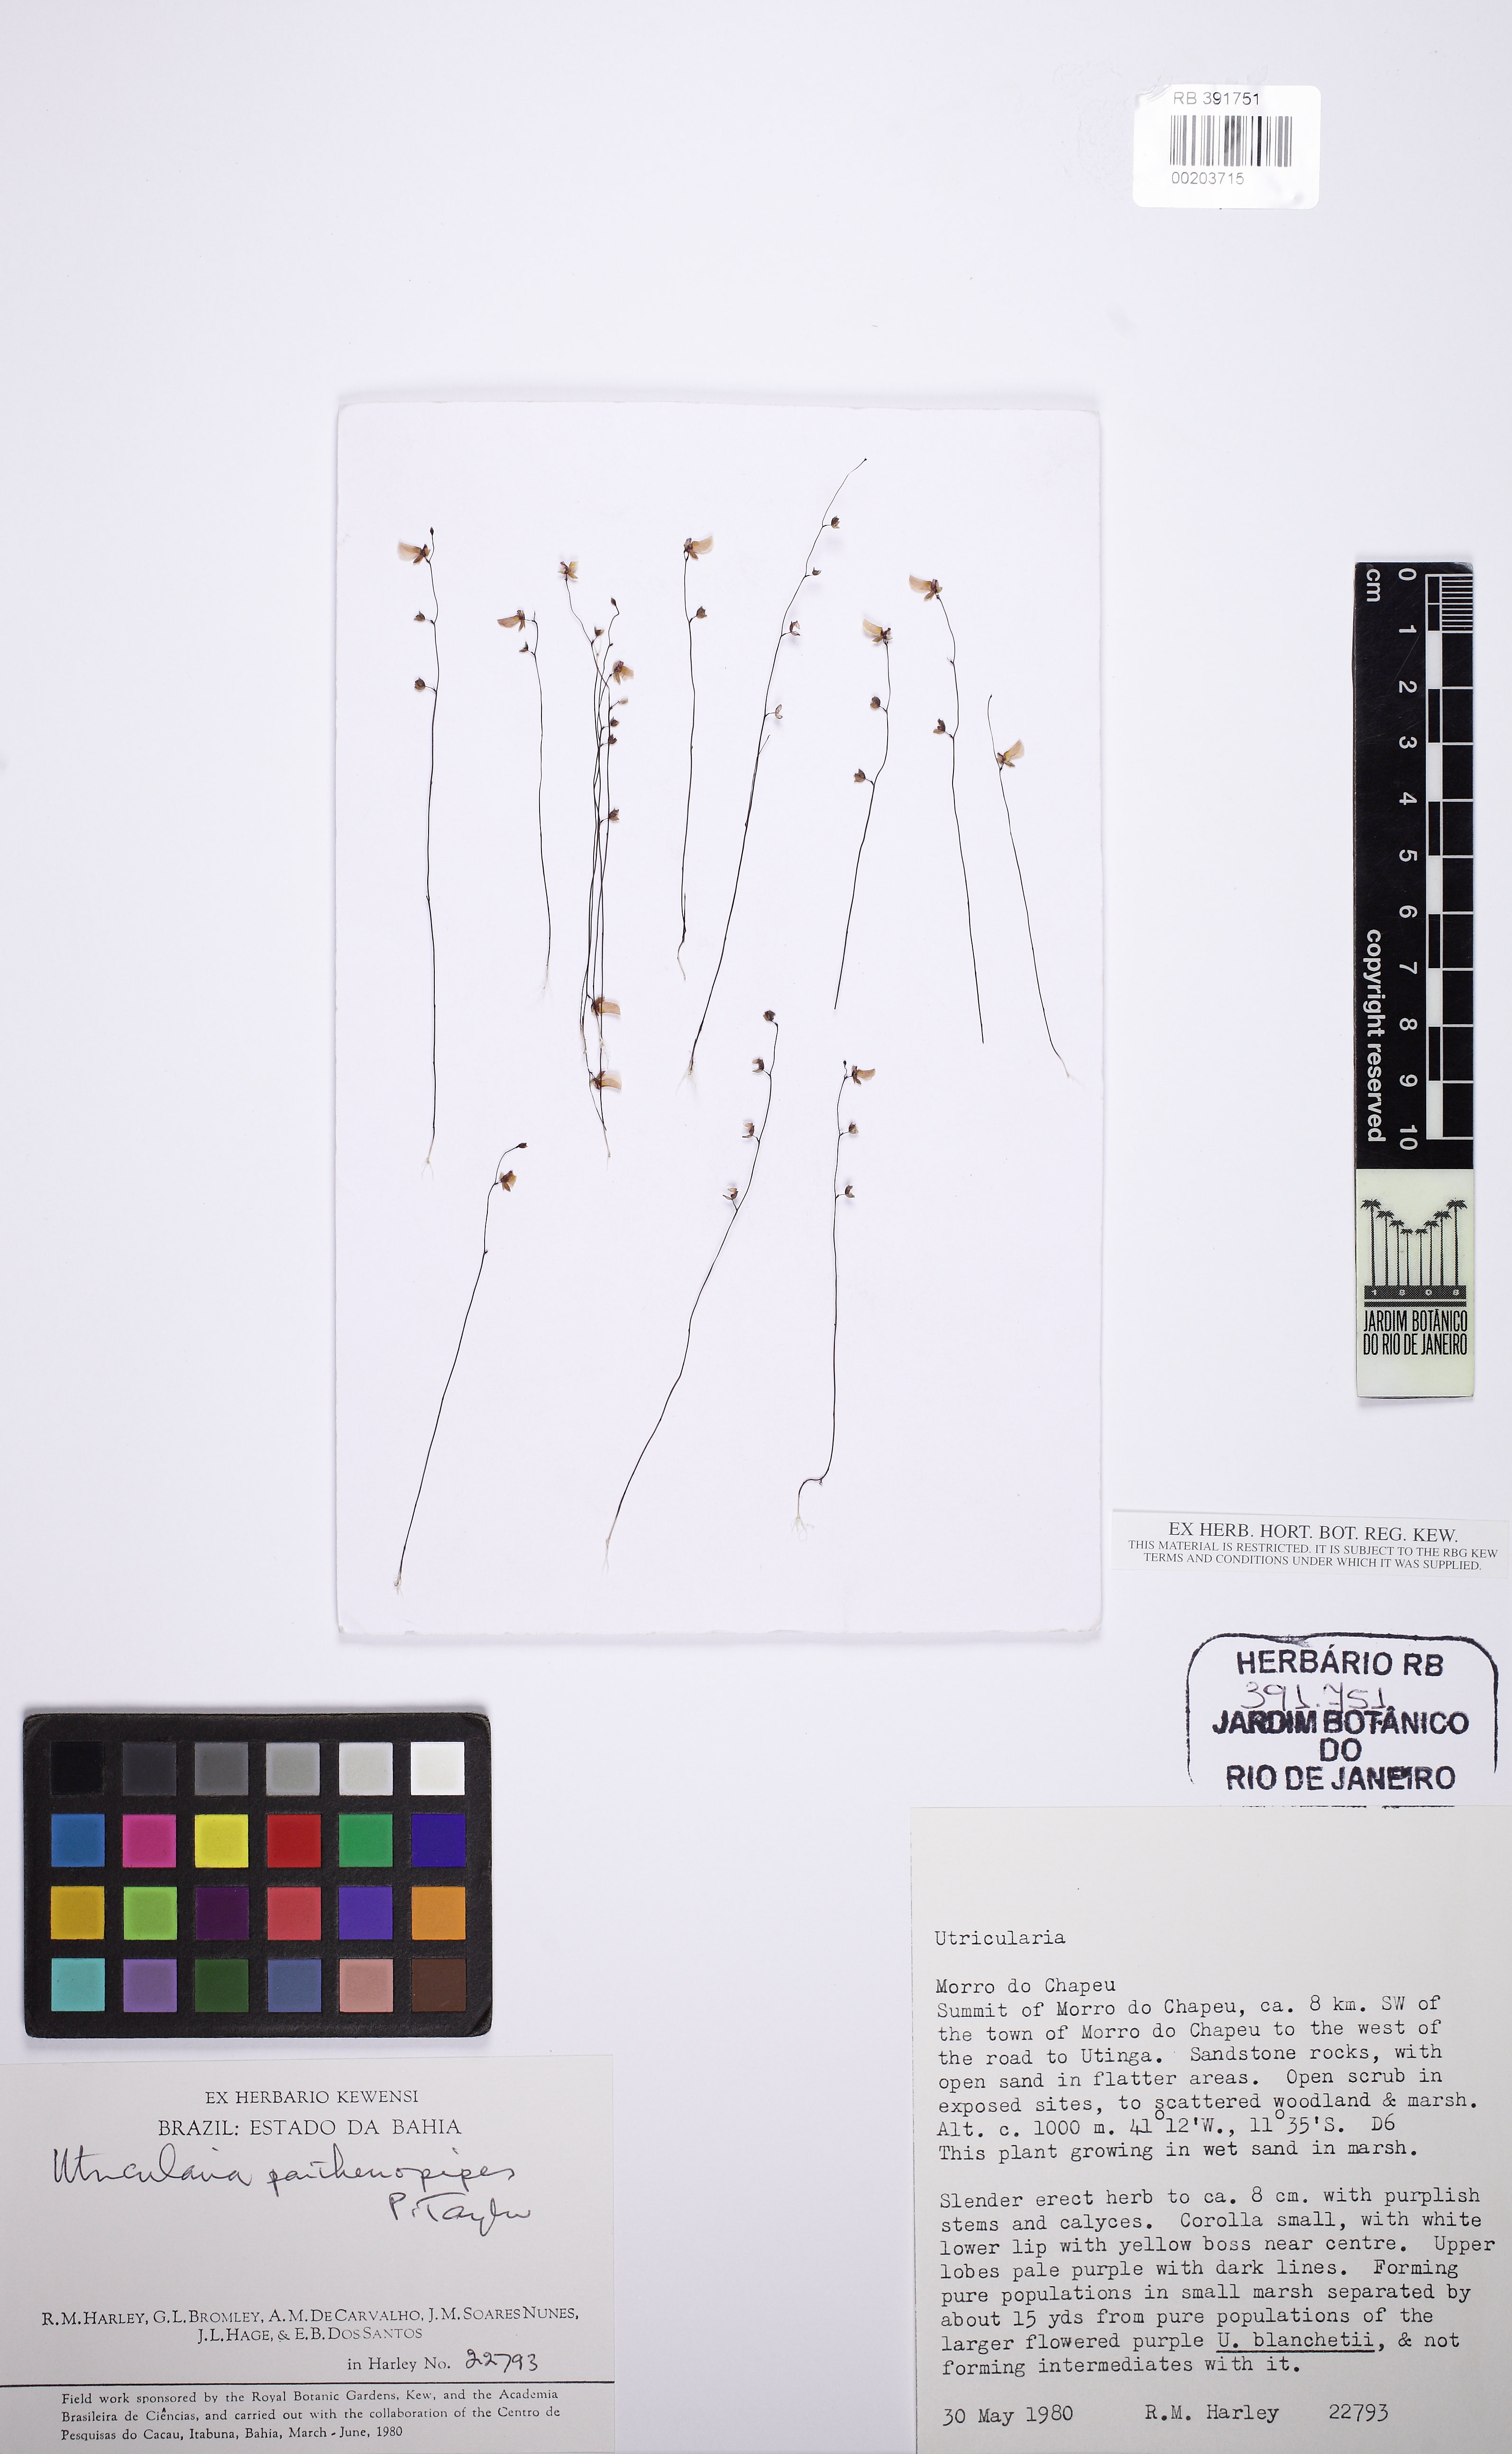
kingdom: Plantae
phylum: Tracheophyta
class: Magnoliopsida
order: Lamiales
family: Lentibulariaceae
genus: Utricularia
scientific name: Utricularia parthenopipes
